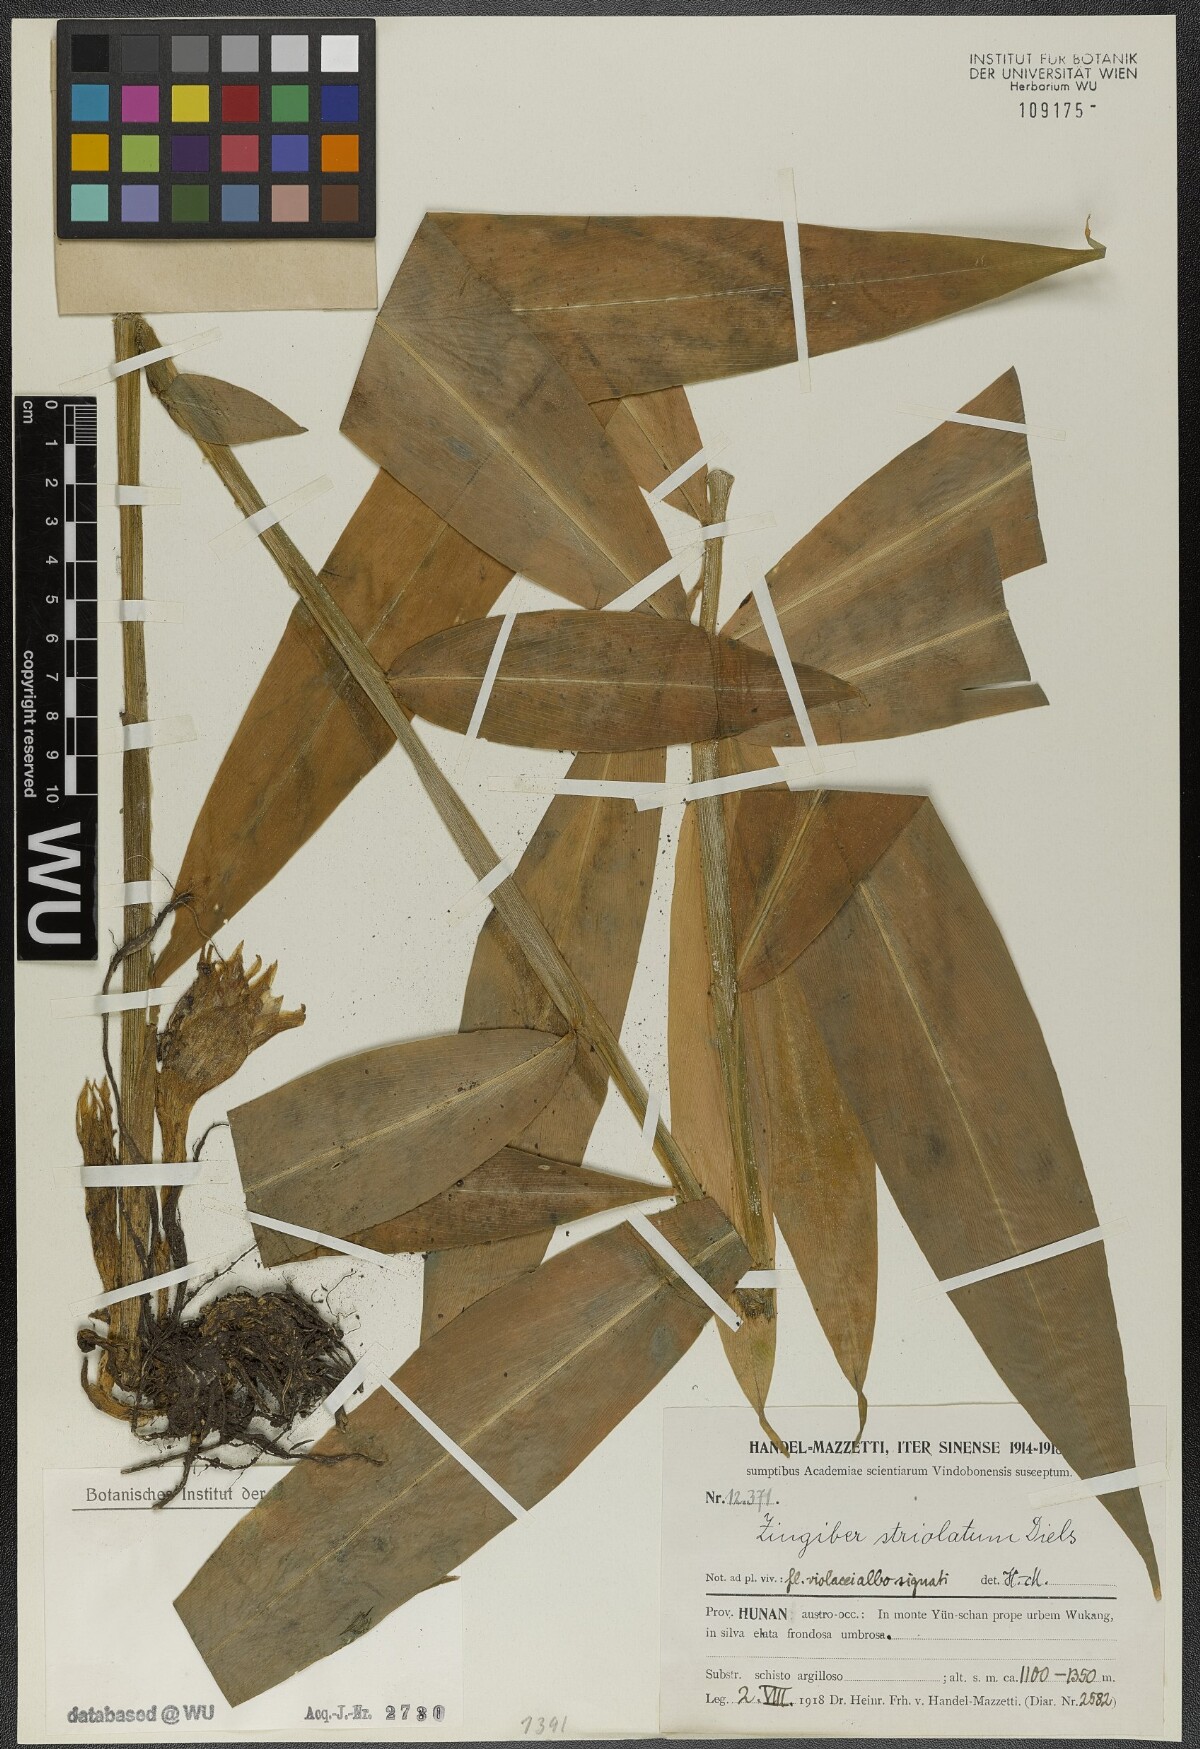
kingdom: Plantae
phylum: Tracheophyta
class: Liliopsida
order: Zingiberales
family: Zingiberaceae
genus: Zingiber
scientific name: Zingiber striolatum
